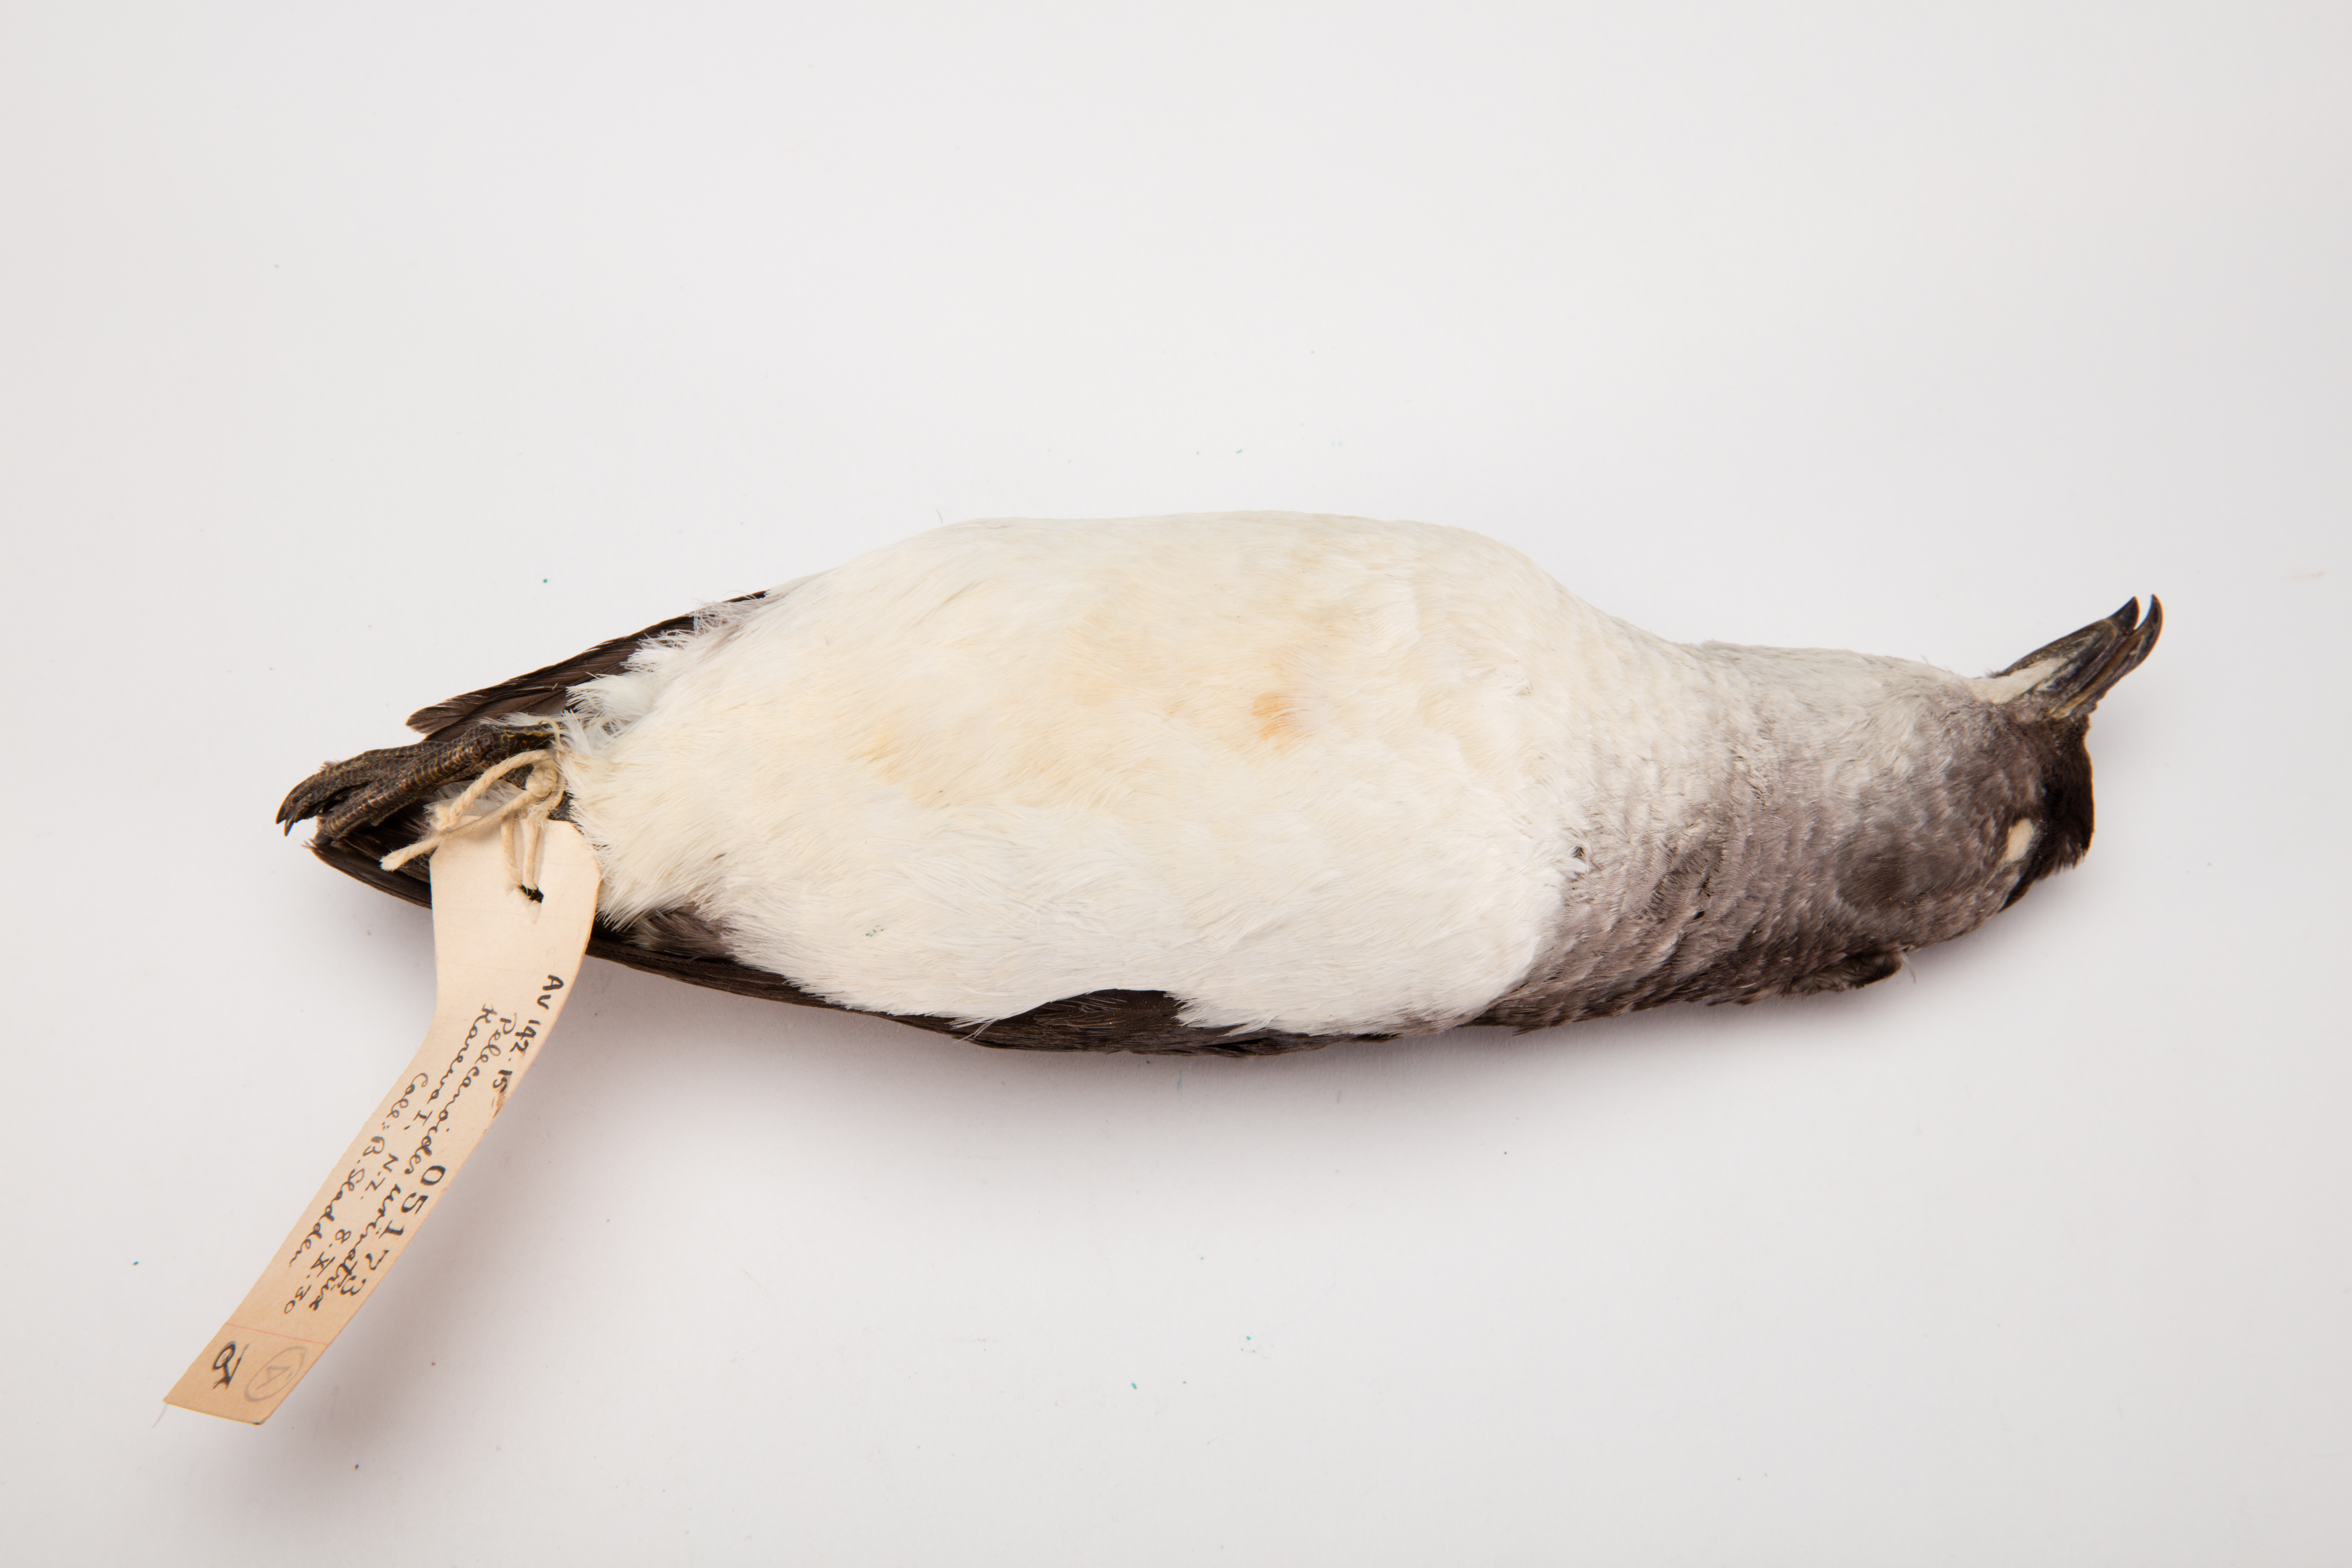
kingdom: Animalia
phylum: Chordata
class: Aves
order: Procellariiformes
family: Pelecanoididae
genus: Pelecanoides
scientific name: Pelecanoides urinatrix
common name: Common diving-petrel
